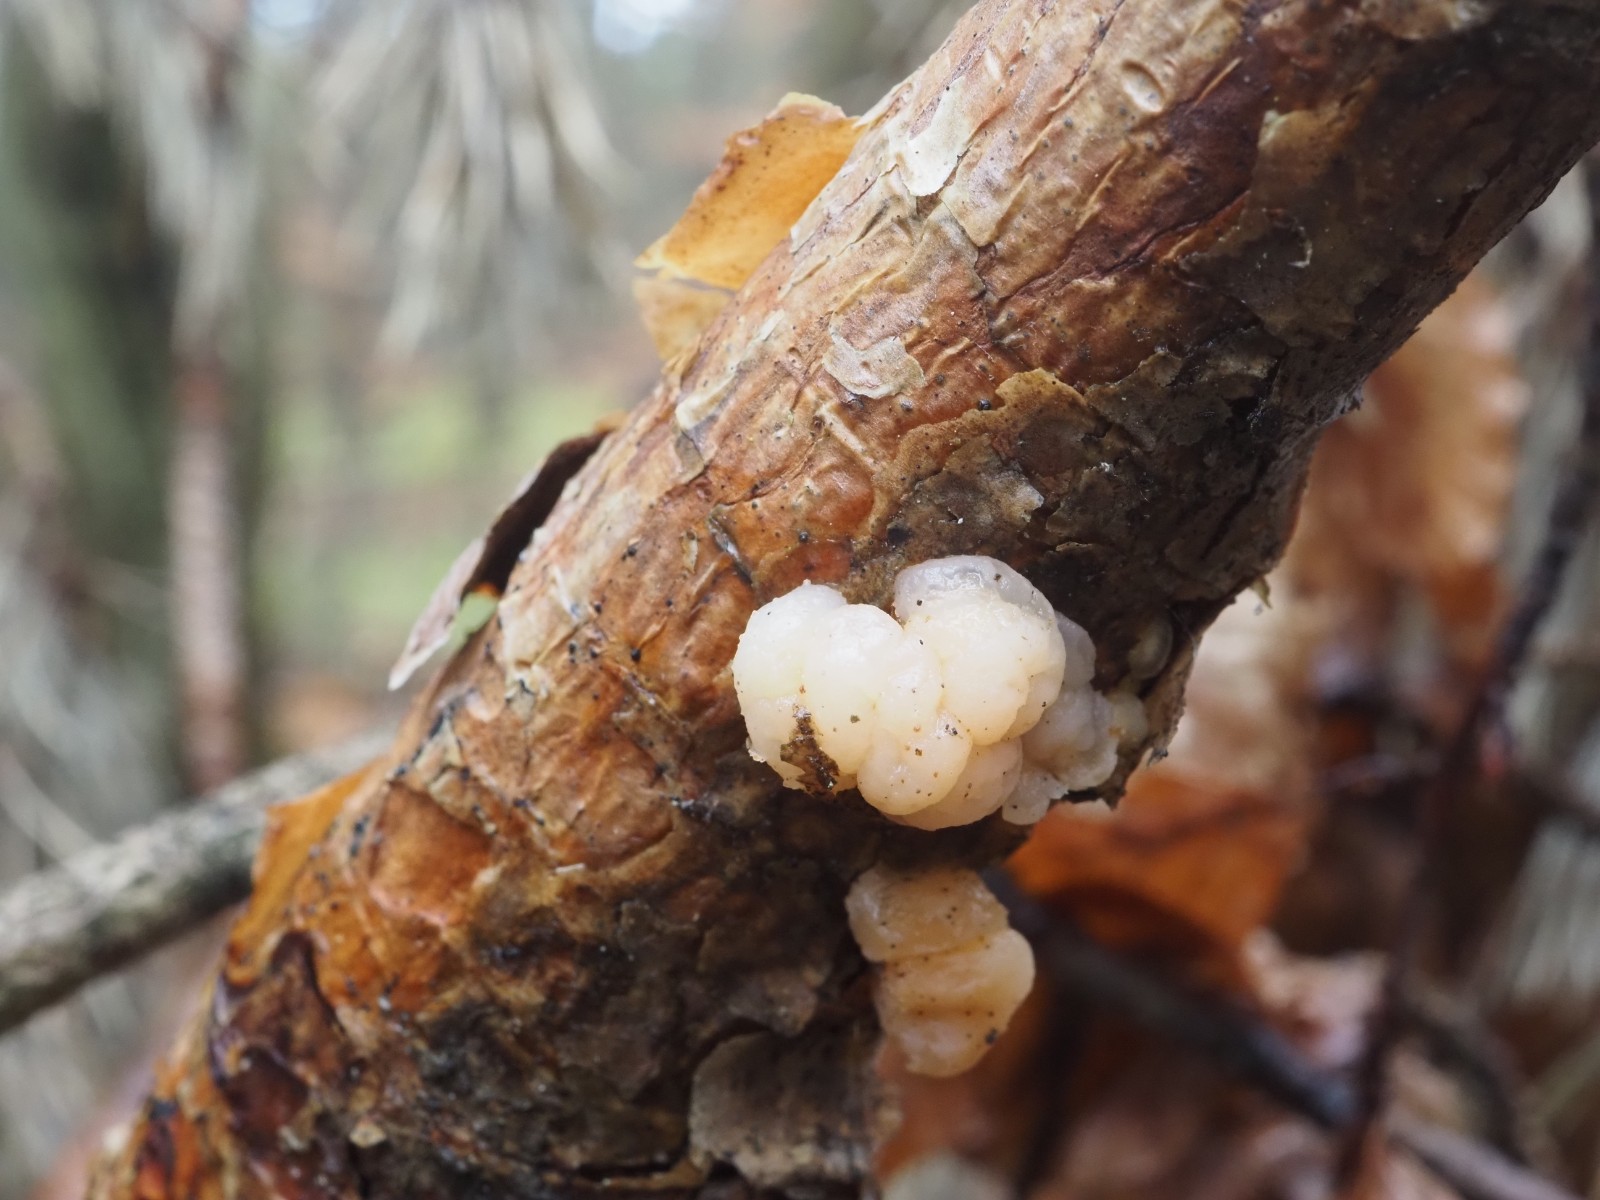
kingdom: Fungi
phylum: Basidiomycota
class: Tremellomycetes
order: Tremellales
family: Naemateliaceae
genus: Naematelia
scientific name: Naematelia encephala
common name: fyrre-bævresvamp
